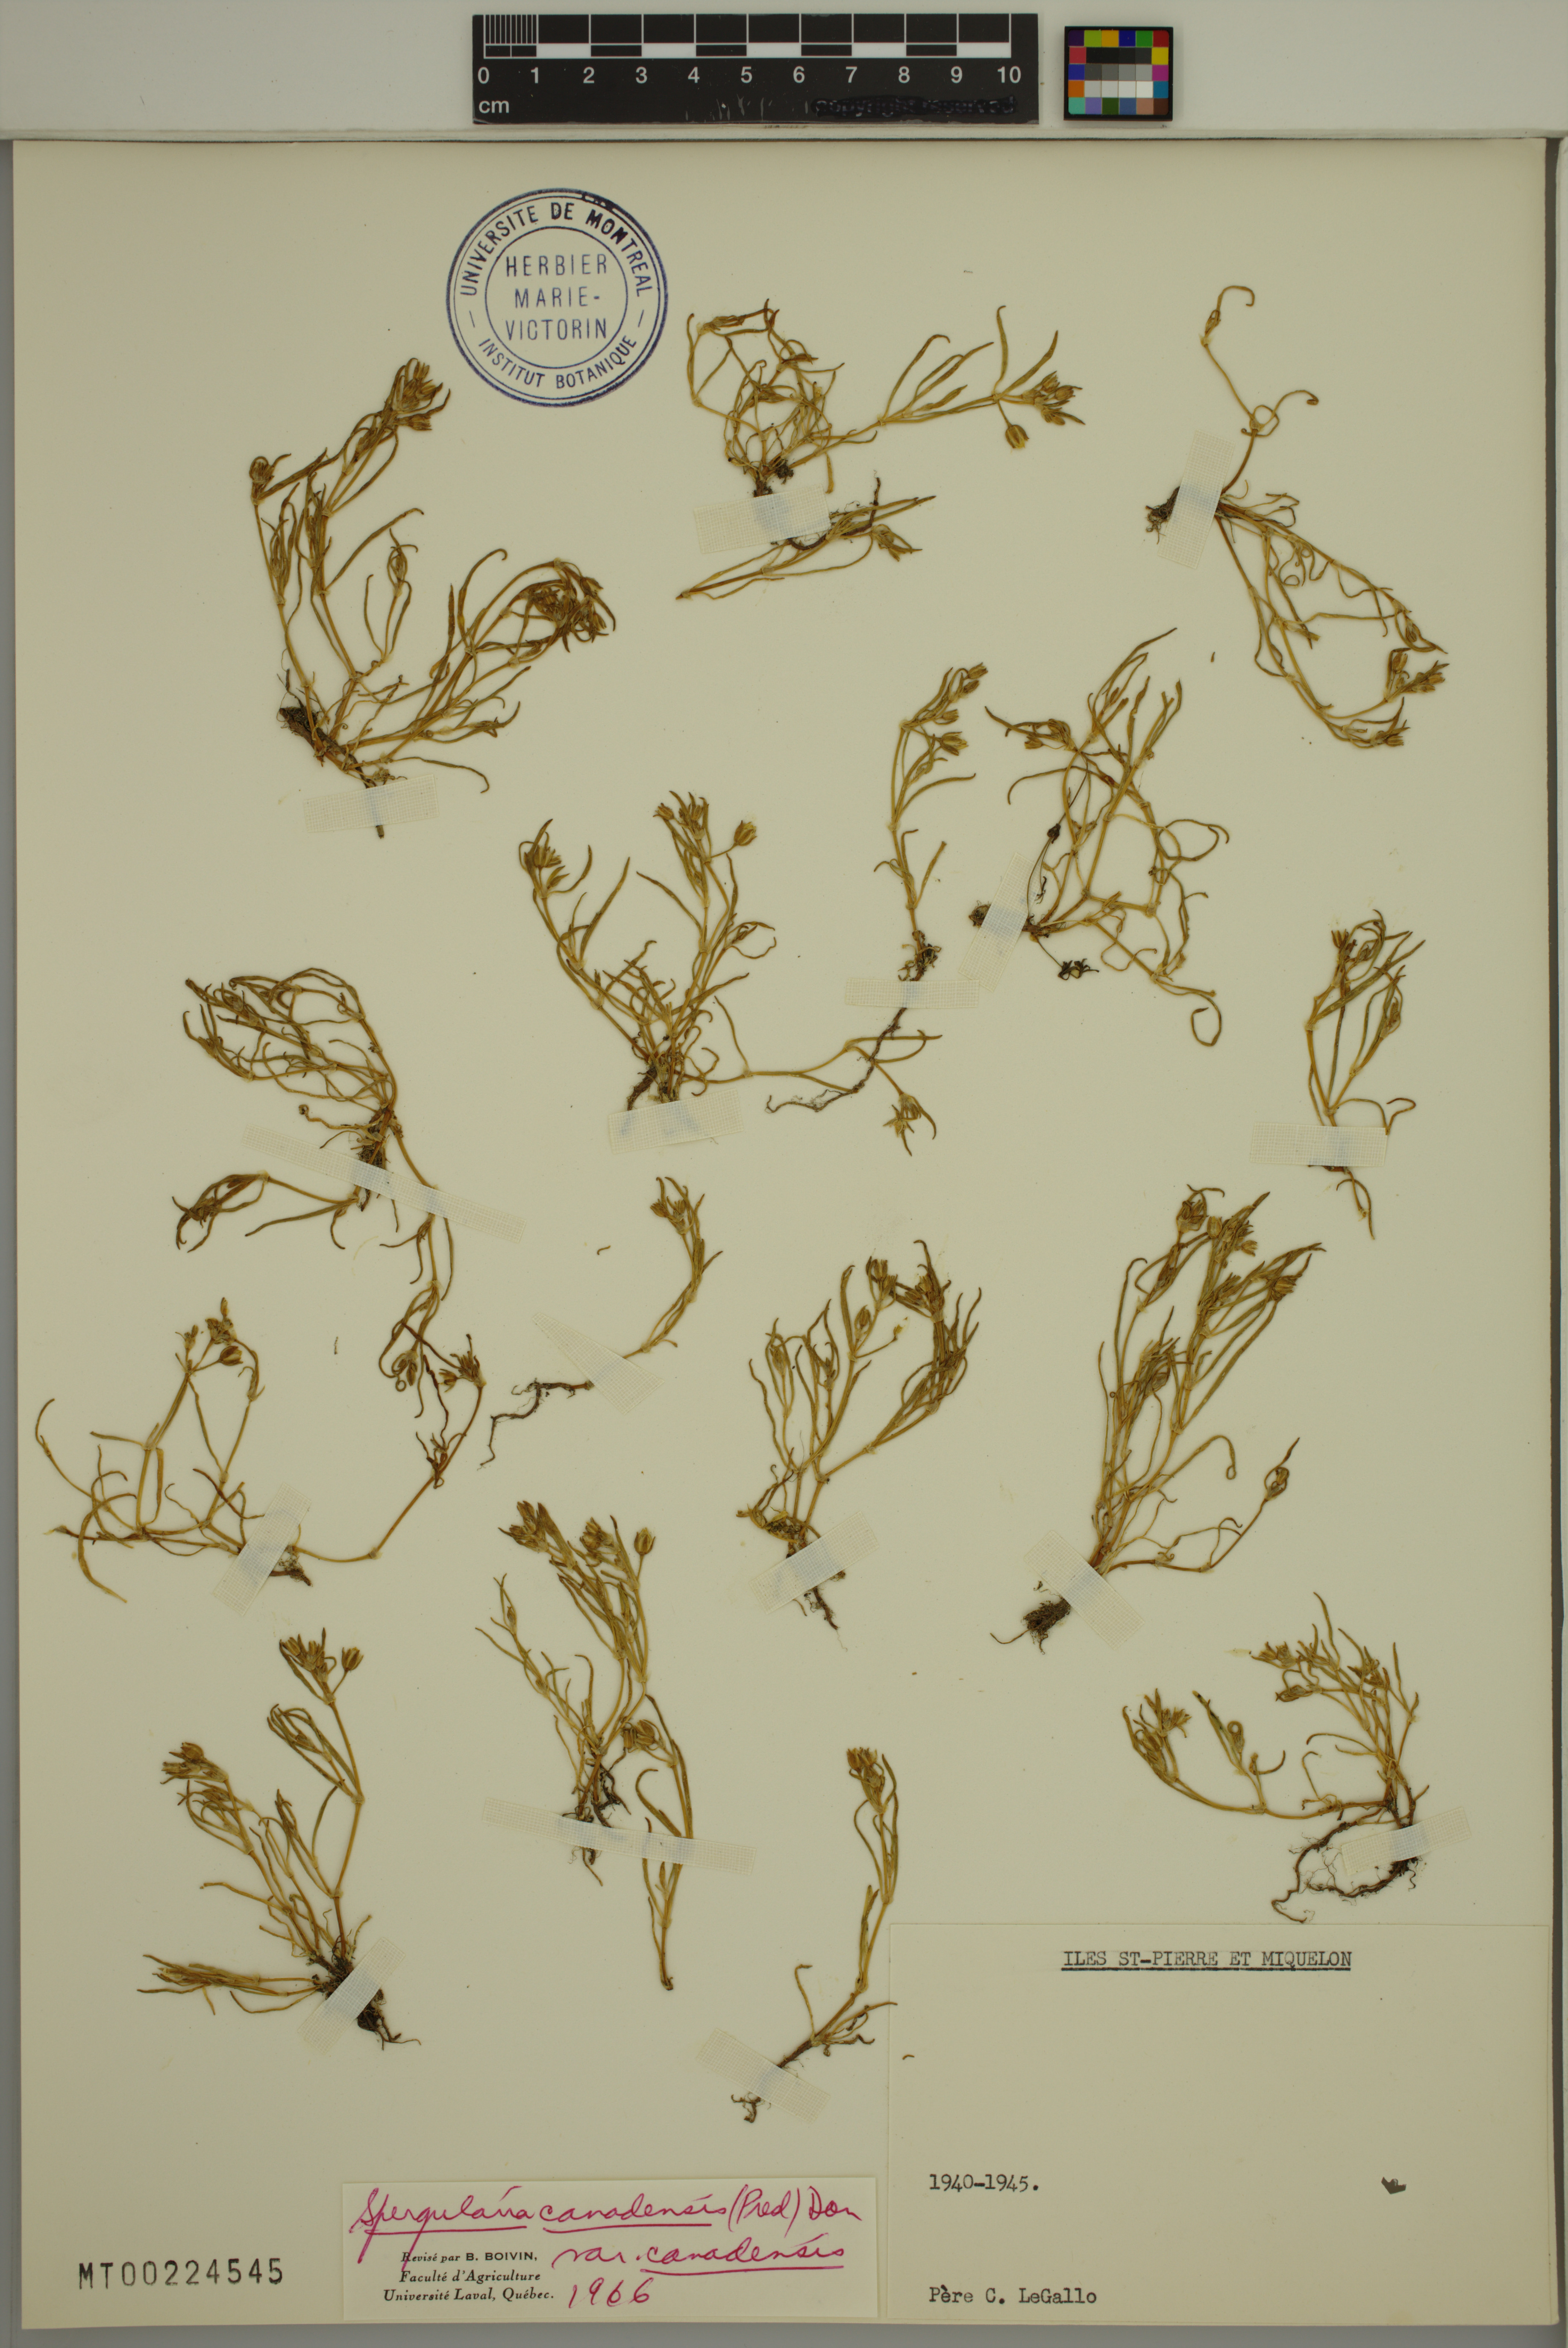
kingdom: Plantae
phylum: Tracheophyta
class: Magnoliopsida
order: Caryophyllales
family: Caryophyllaceae
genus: Spergularia
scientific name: Spergularia canadensis
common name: Canada sand-spurrey
